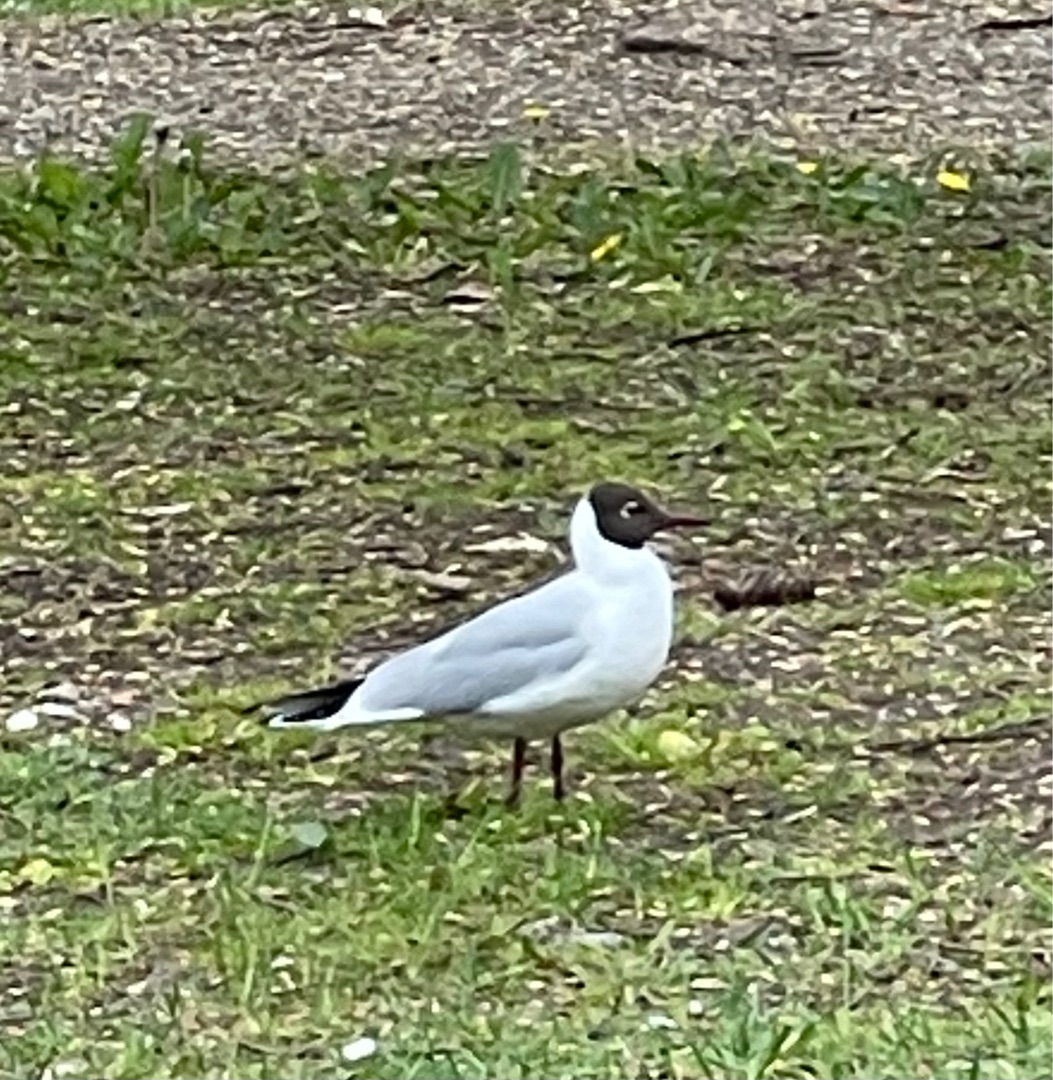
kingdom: Animalia
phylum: Chordata
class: Aves
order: Charadriiformes
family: Laridae
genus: Chroicocephalus
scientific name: Chroicocephalus ridibundus
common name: Hættemåge
